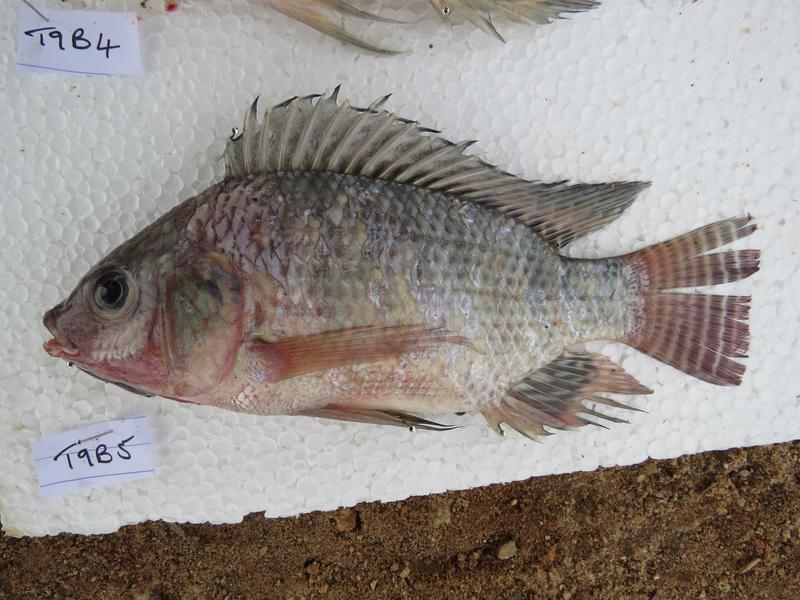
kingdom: Animalia
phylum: Chordata
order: Perciformes
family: Cichlidae
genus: Oreochromis
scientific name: Oreochromis niloticus
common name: Nile tilapia
